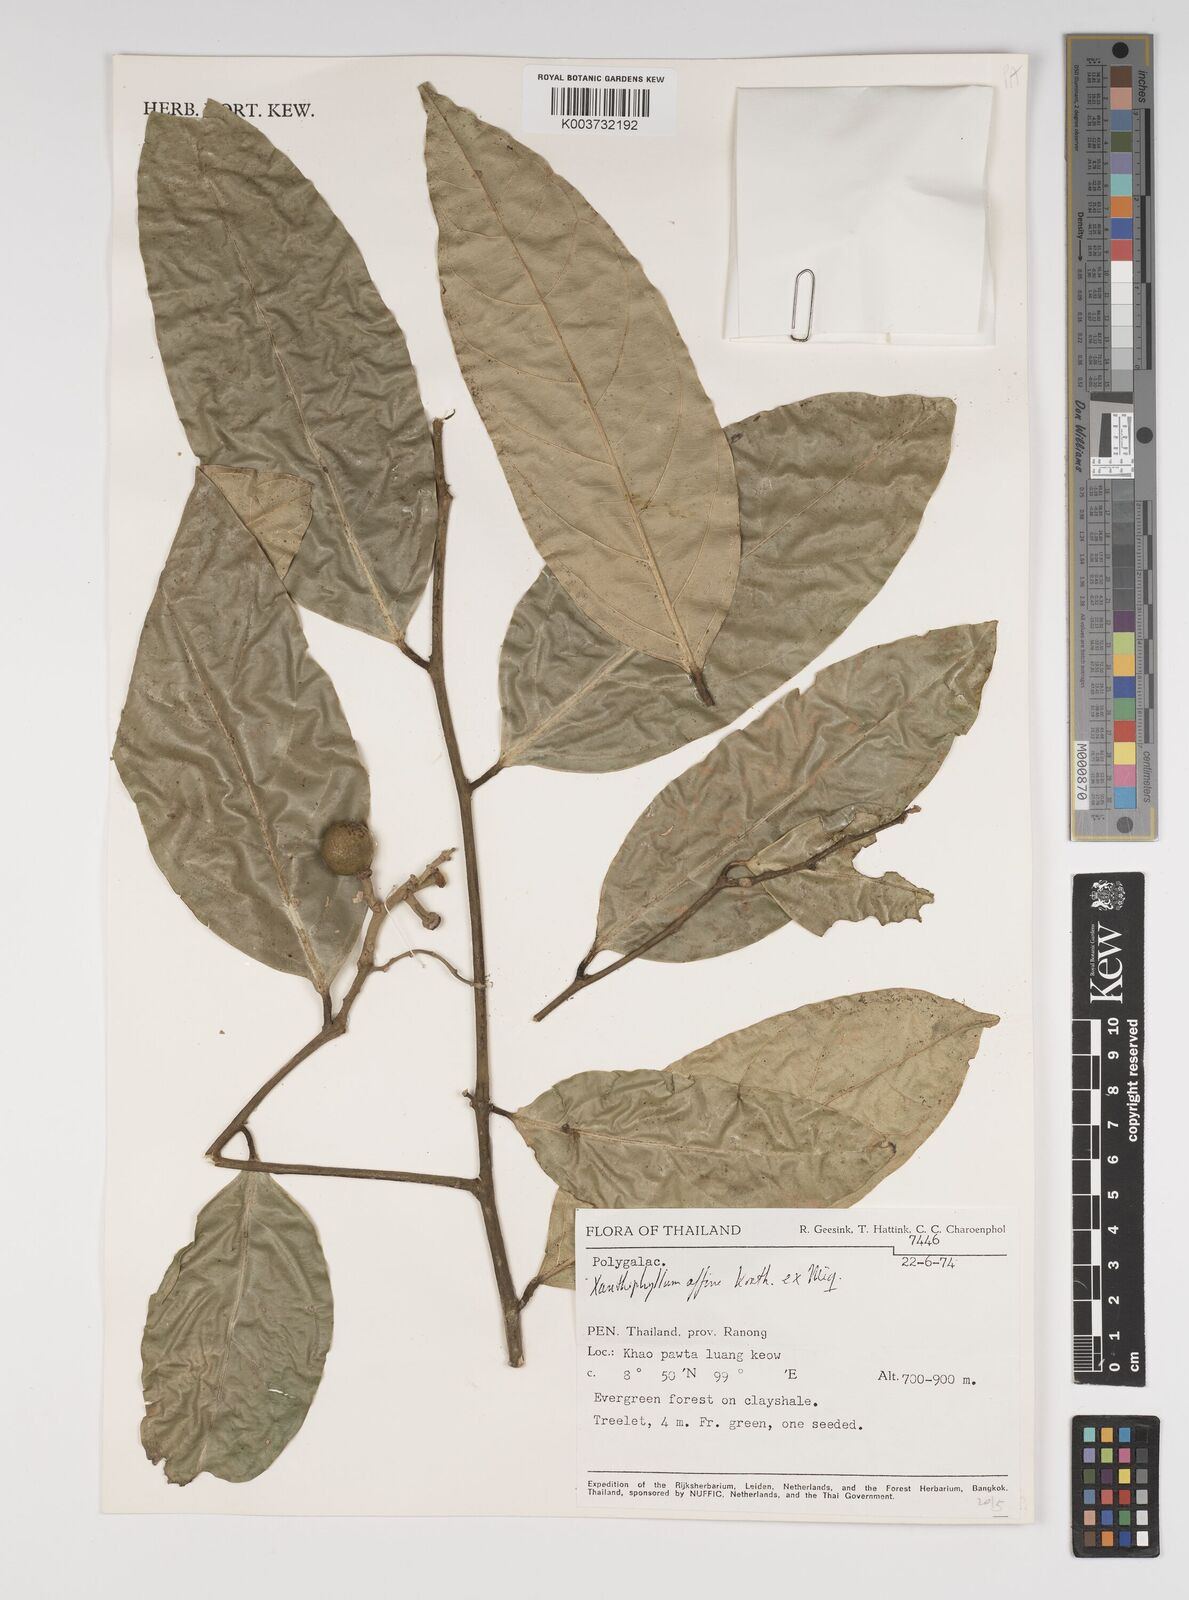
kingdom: Plantae
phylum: Tracheophyta
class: Magnoliopsida
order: Fabales
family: Polygalaceae
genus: Xanthophyllum
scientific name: Xanthophyllum flavescens
